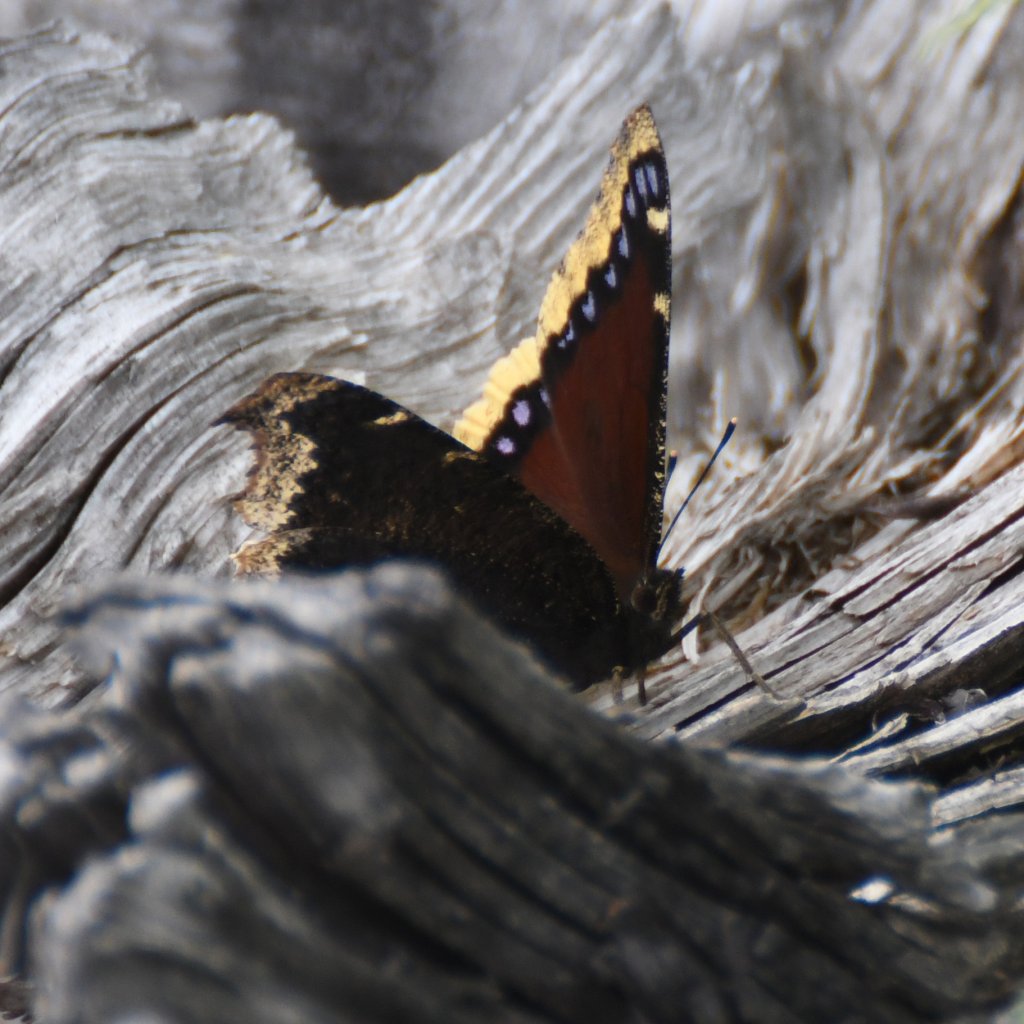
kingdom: Animalia
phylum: Arthropoda
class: Insecta
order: Lepidoptera
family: Nymphalidae
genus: Nymphalis
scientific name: Nymphalis antiopa
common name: Mourning Cloak
